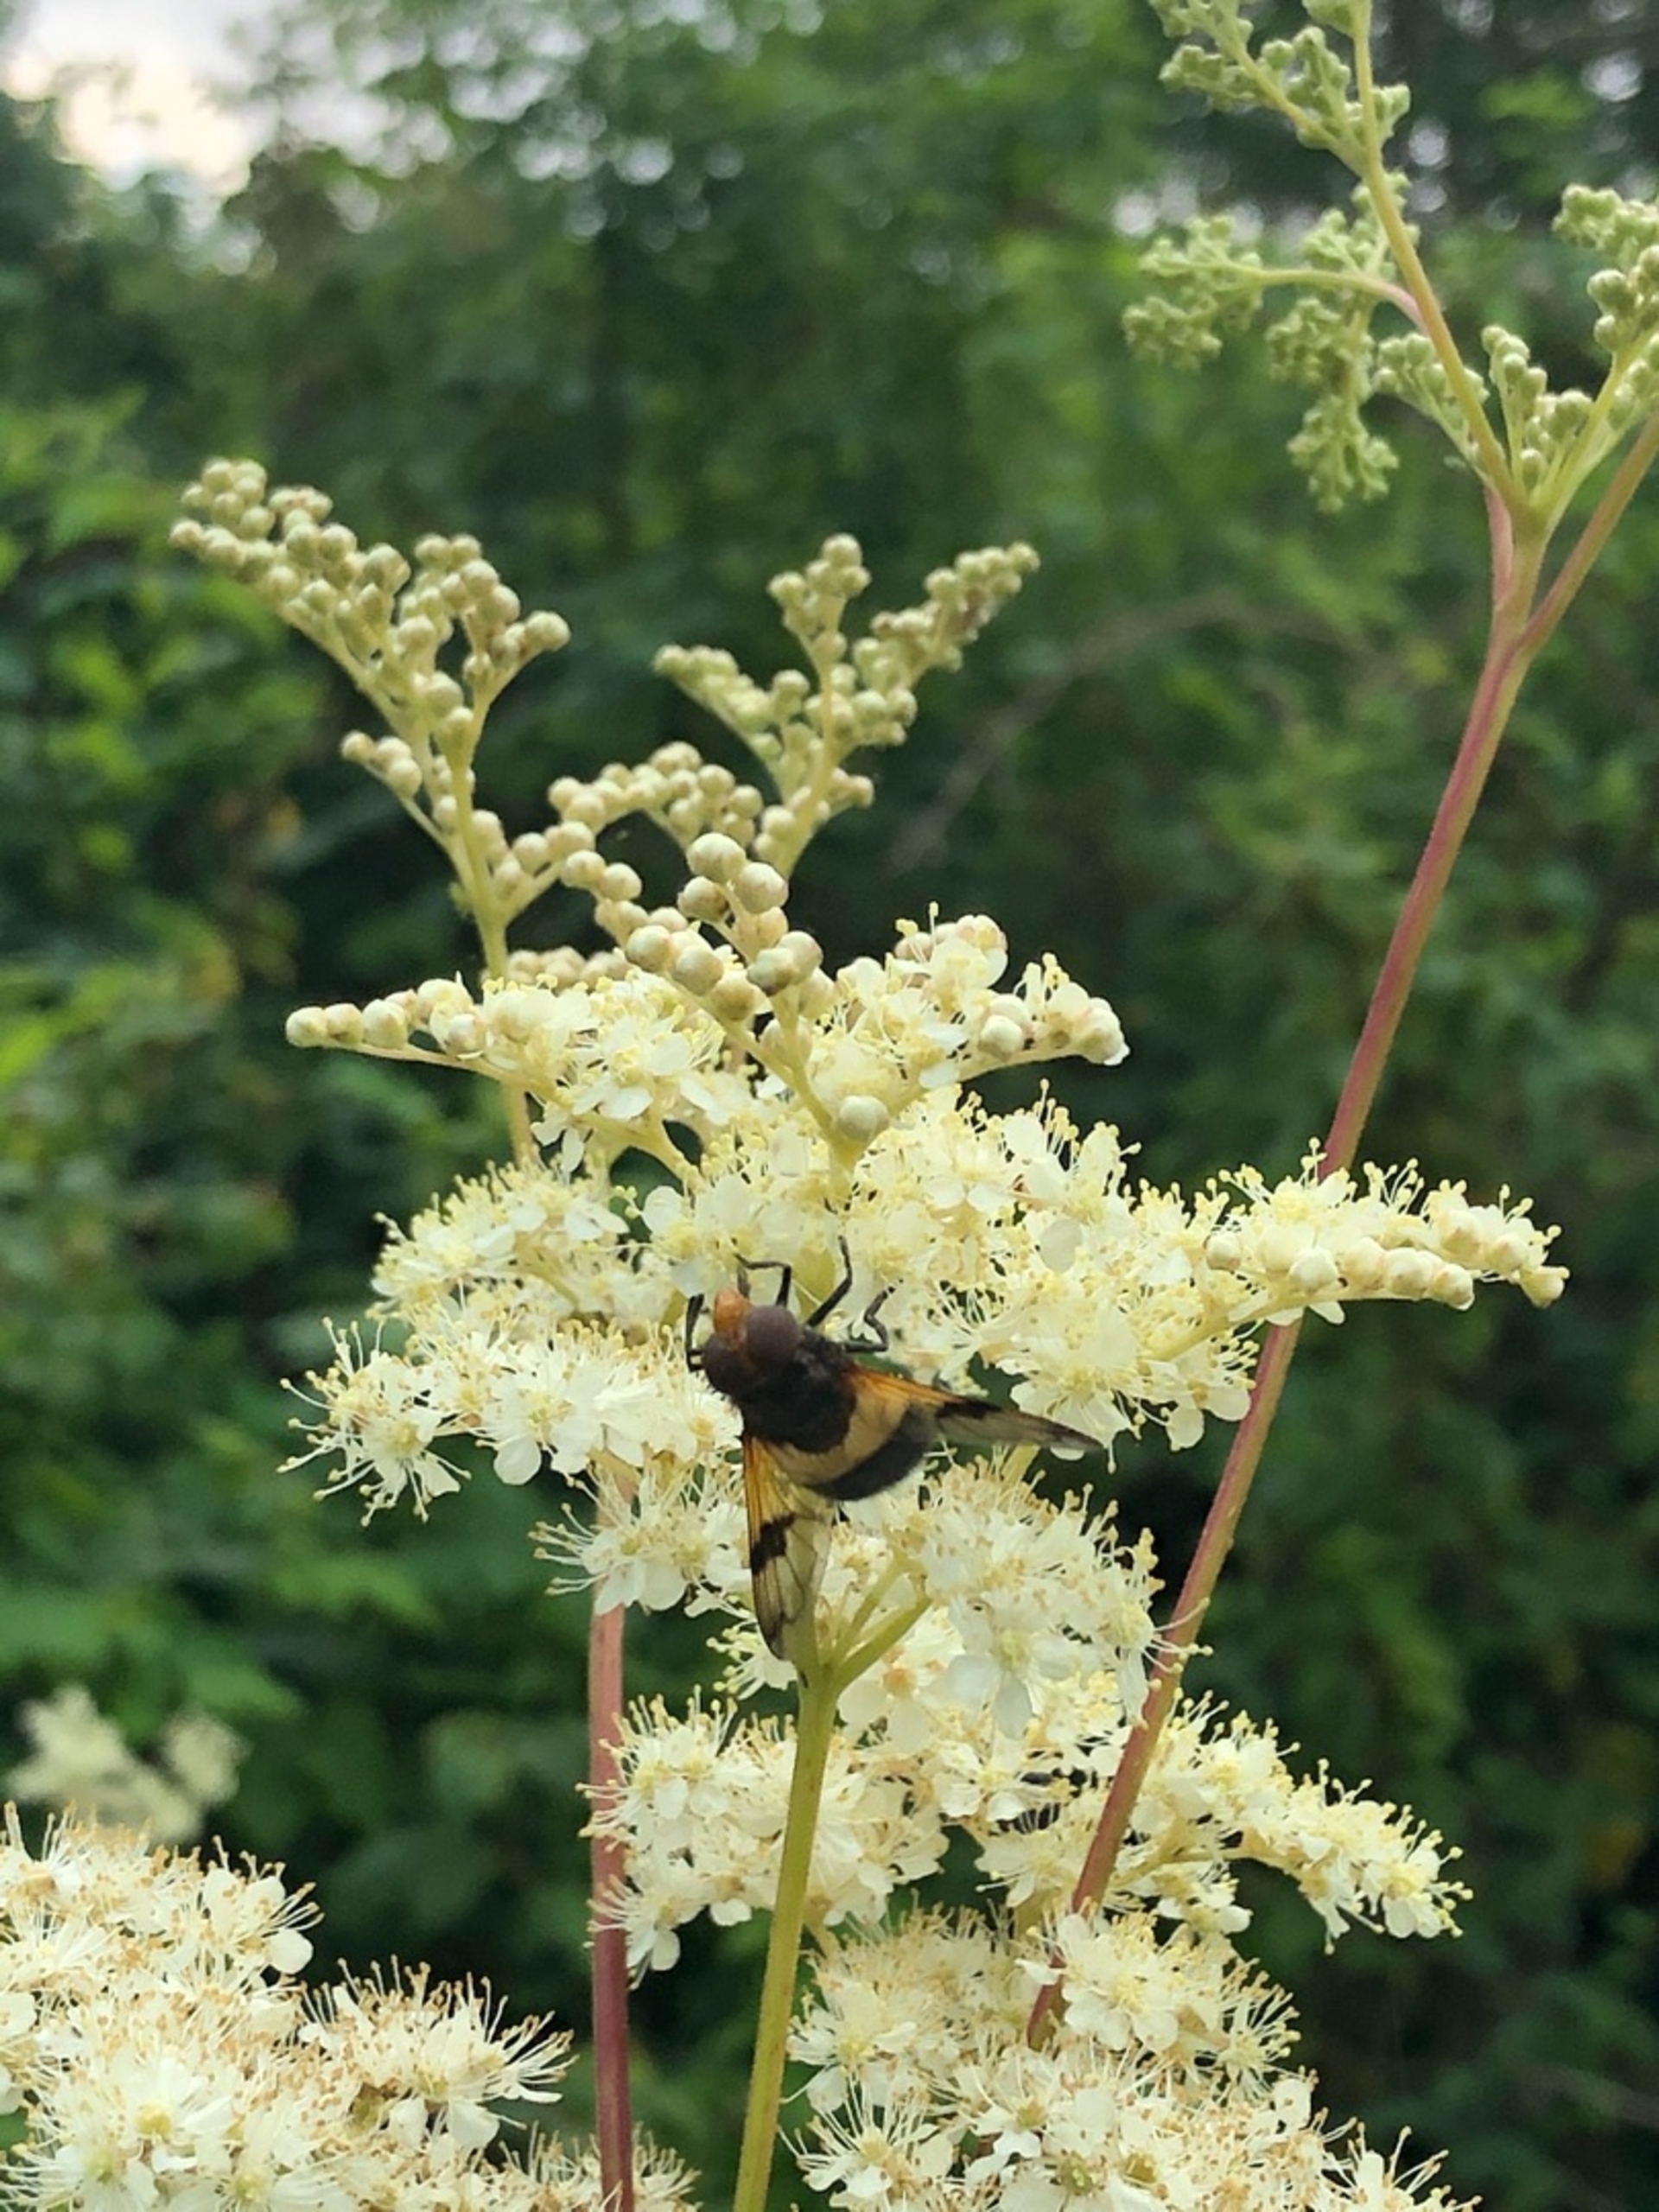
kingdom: Animalia
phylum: Arthropoda
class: Insecta
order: Diptera
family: Syrphidae
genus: Volucella
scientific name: Volucella pellucens
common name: Hvidbåndet humlesvirreflue
